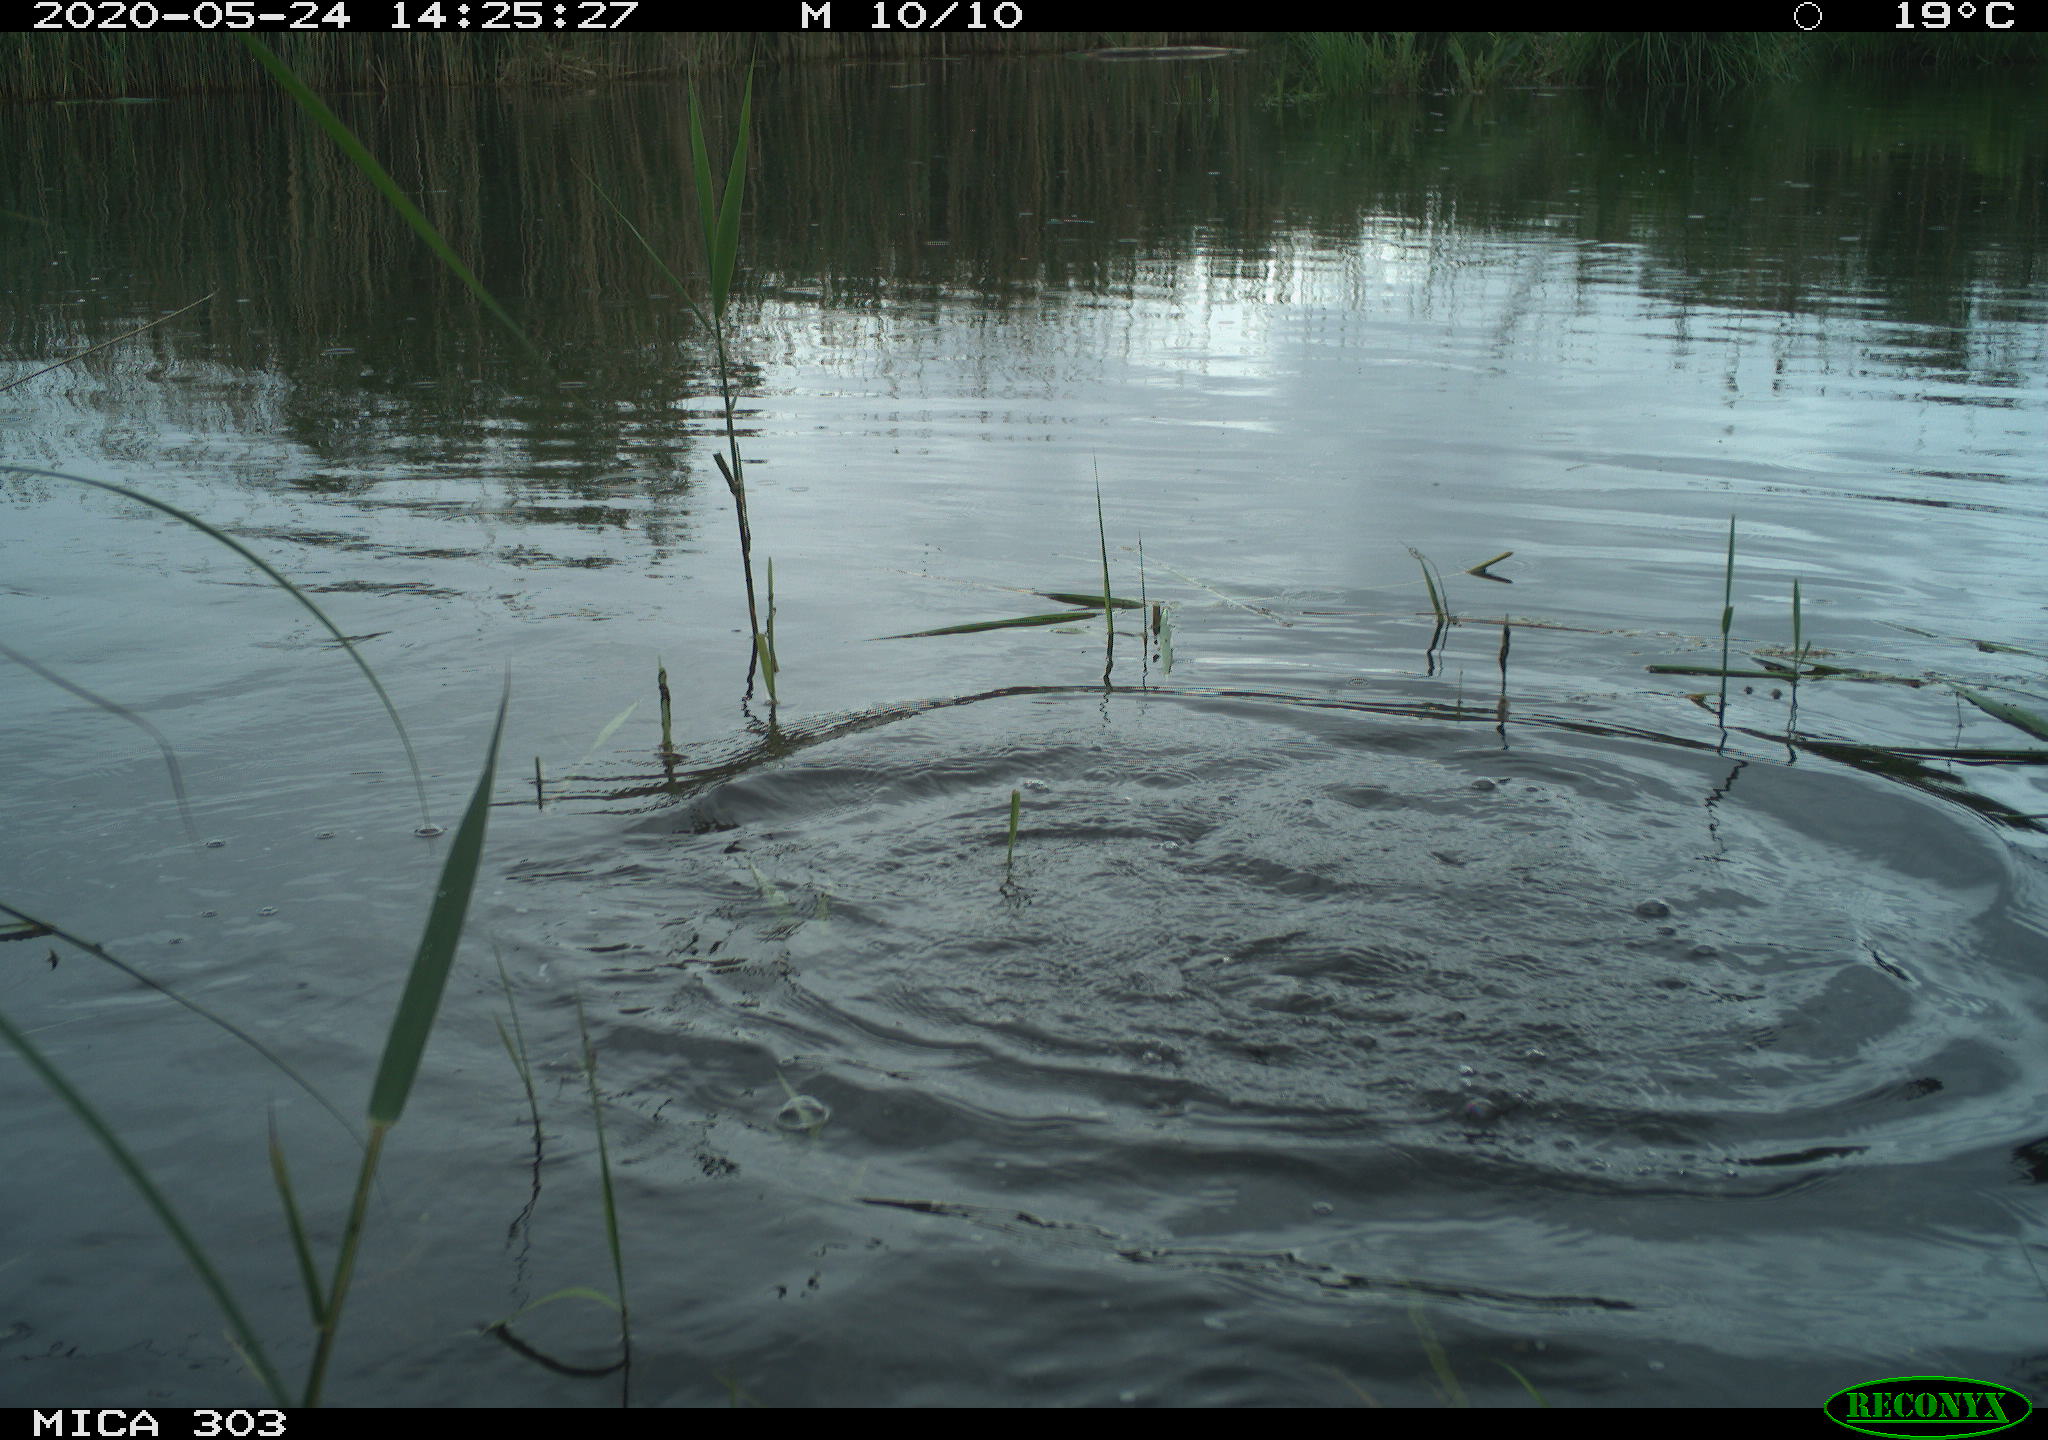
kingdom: Animalia
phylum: Chordata
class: Aves
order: Suliformes
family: Phalacrocoracidae
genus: Phalacrocorax
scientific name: Phalacrocorax carbo
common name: Great cormorant
